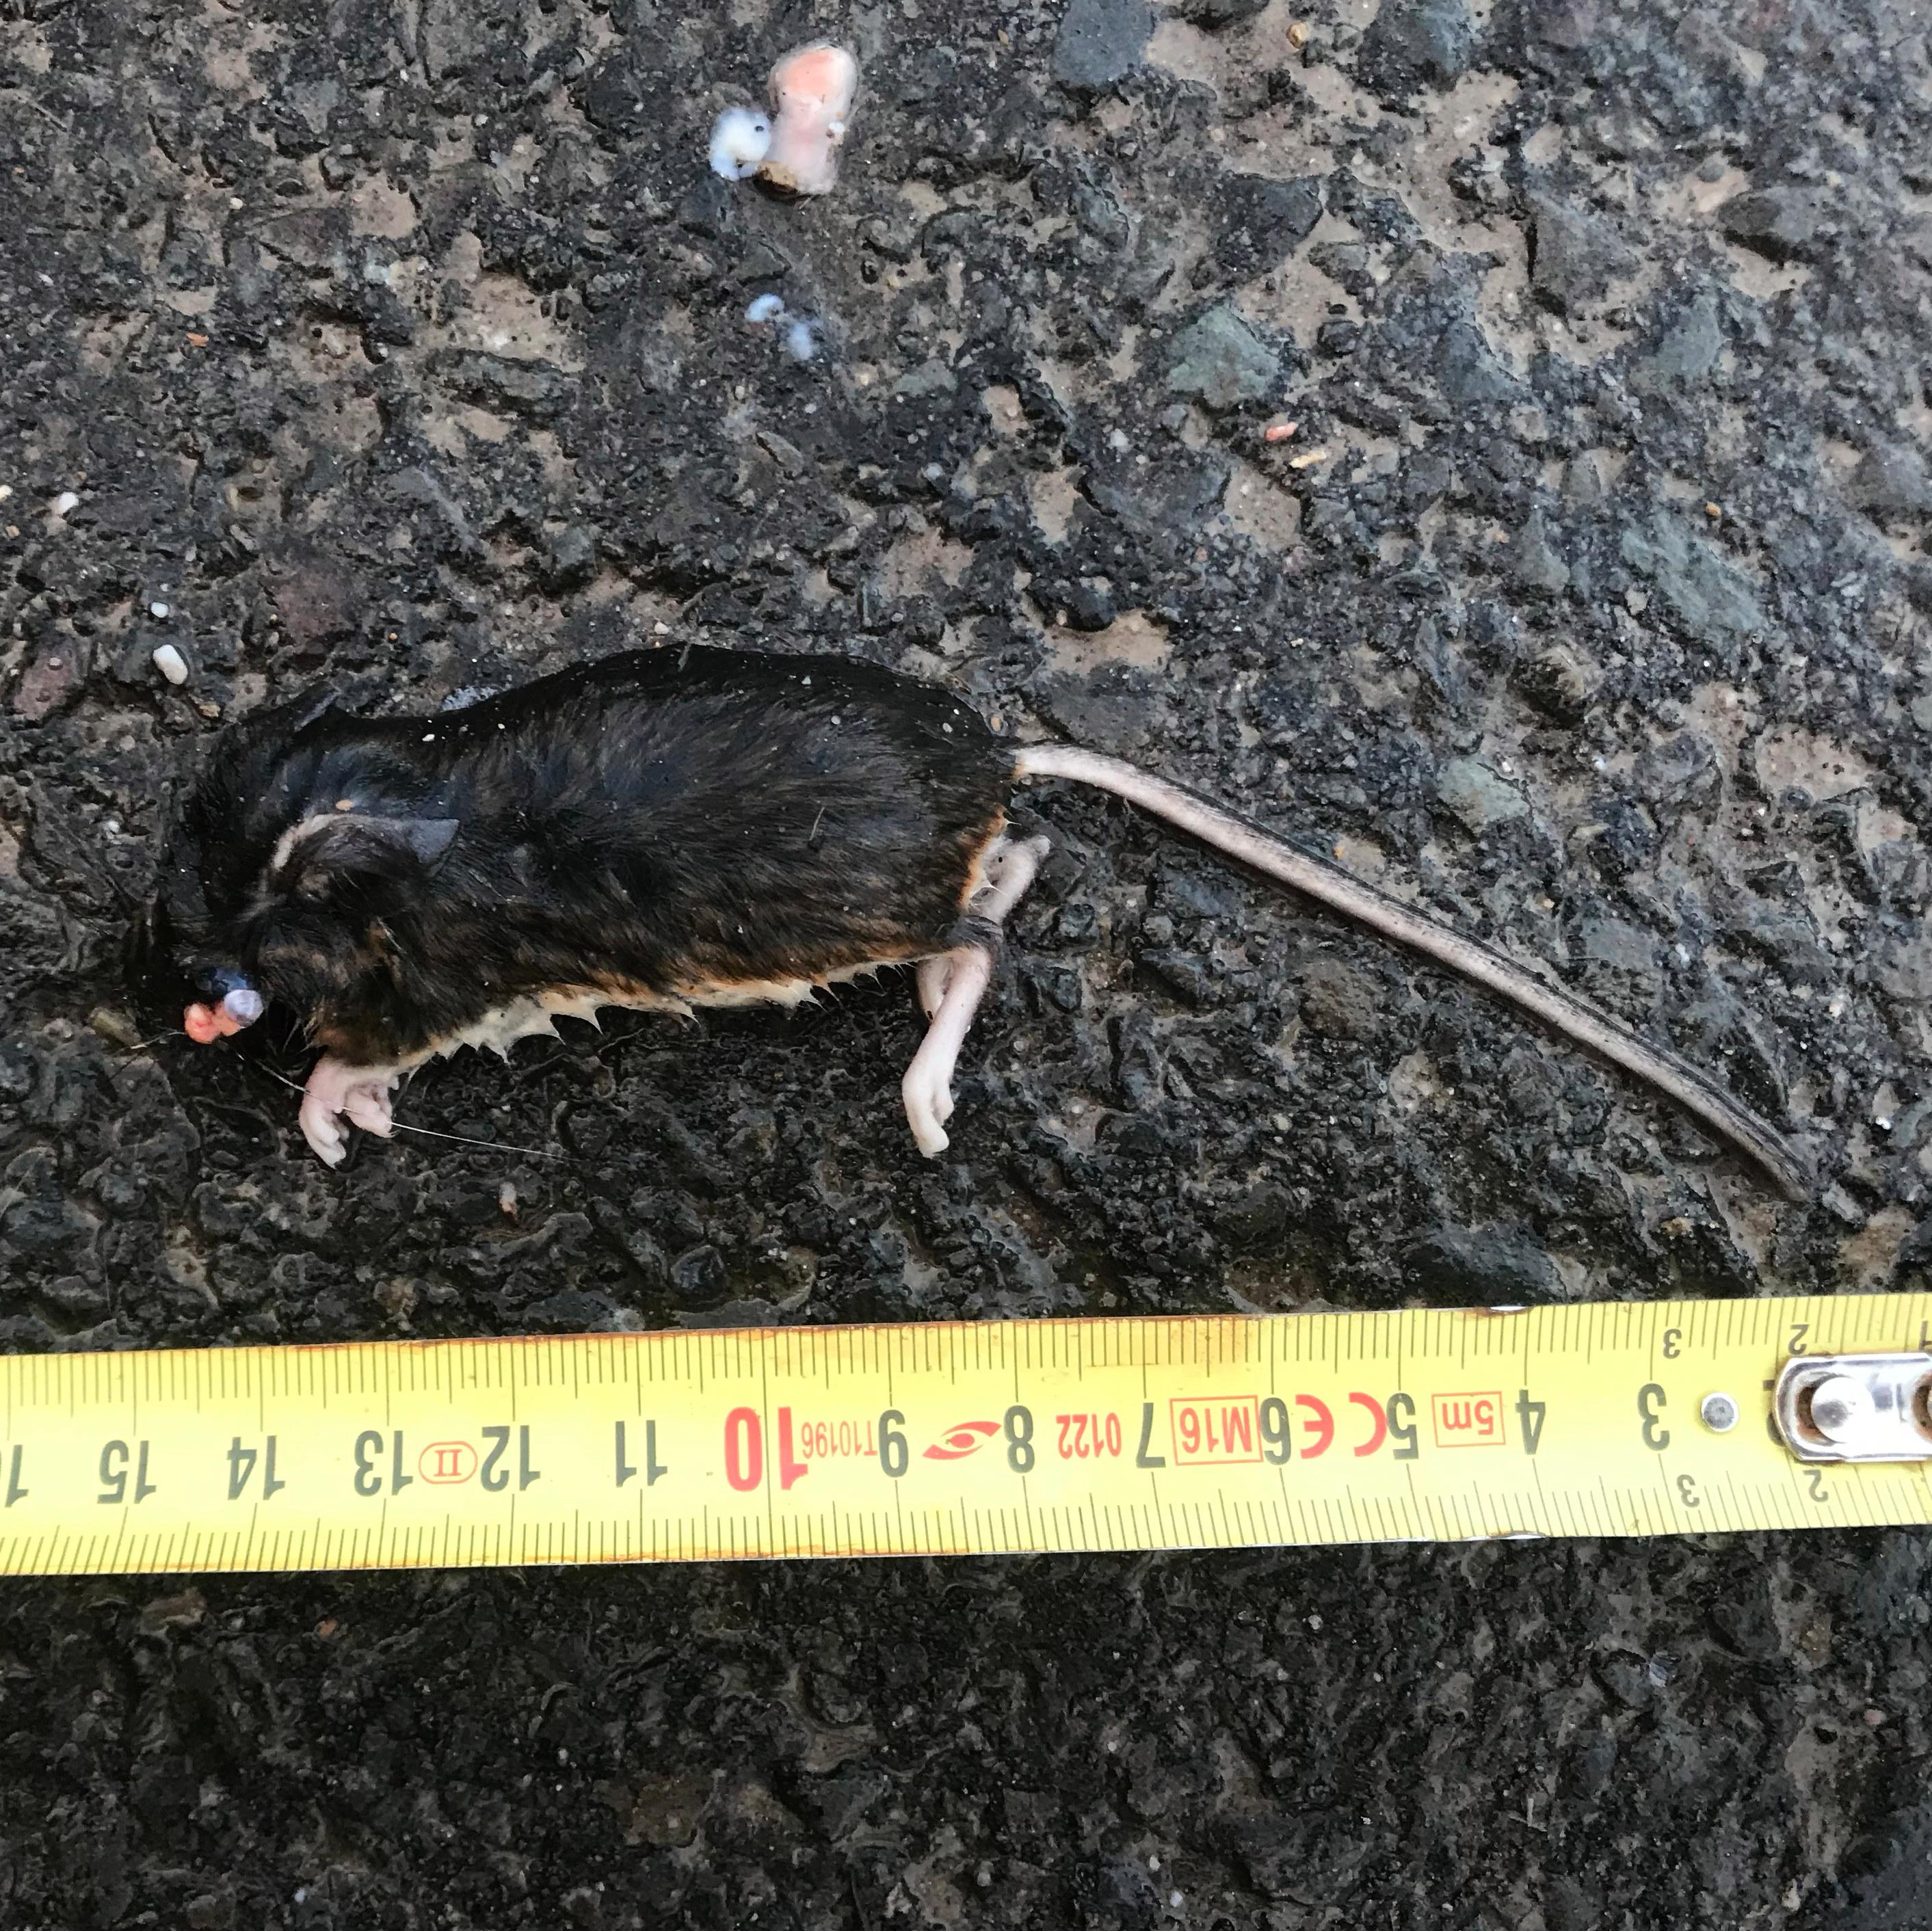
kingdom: Animalia
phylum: Chordata
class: Mammalia
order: Rodentia
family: Muridae
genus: Apodemus
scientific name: Apodemus
